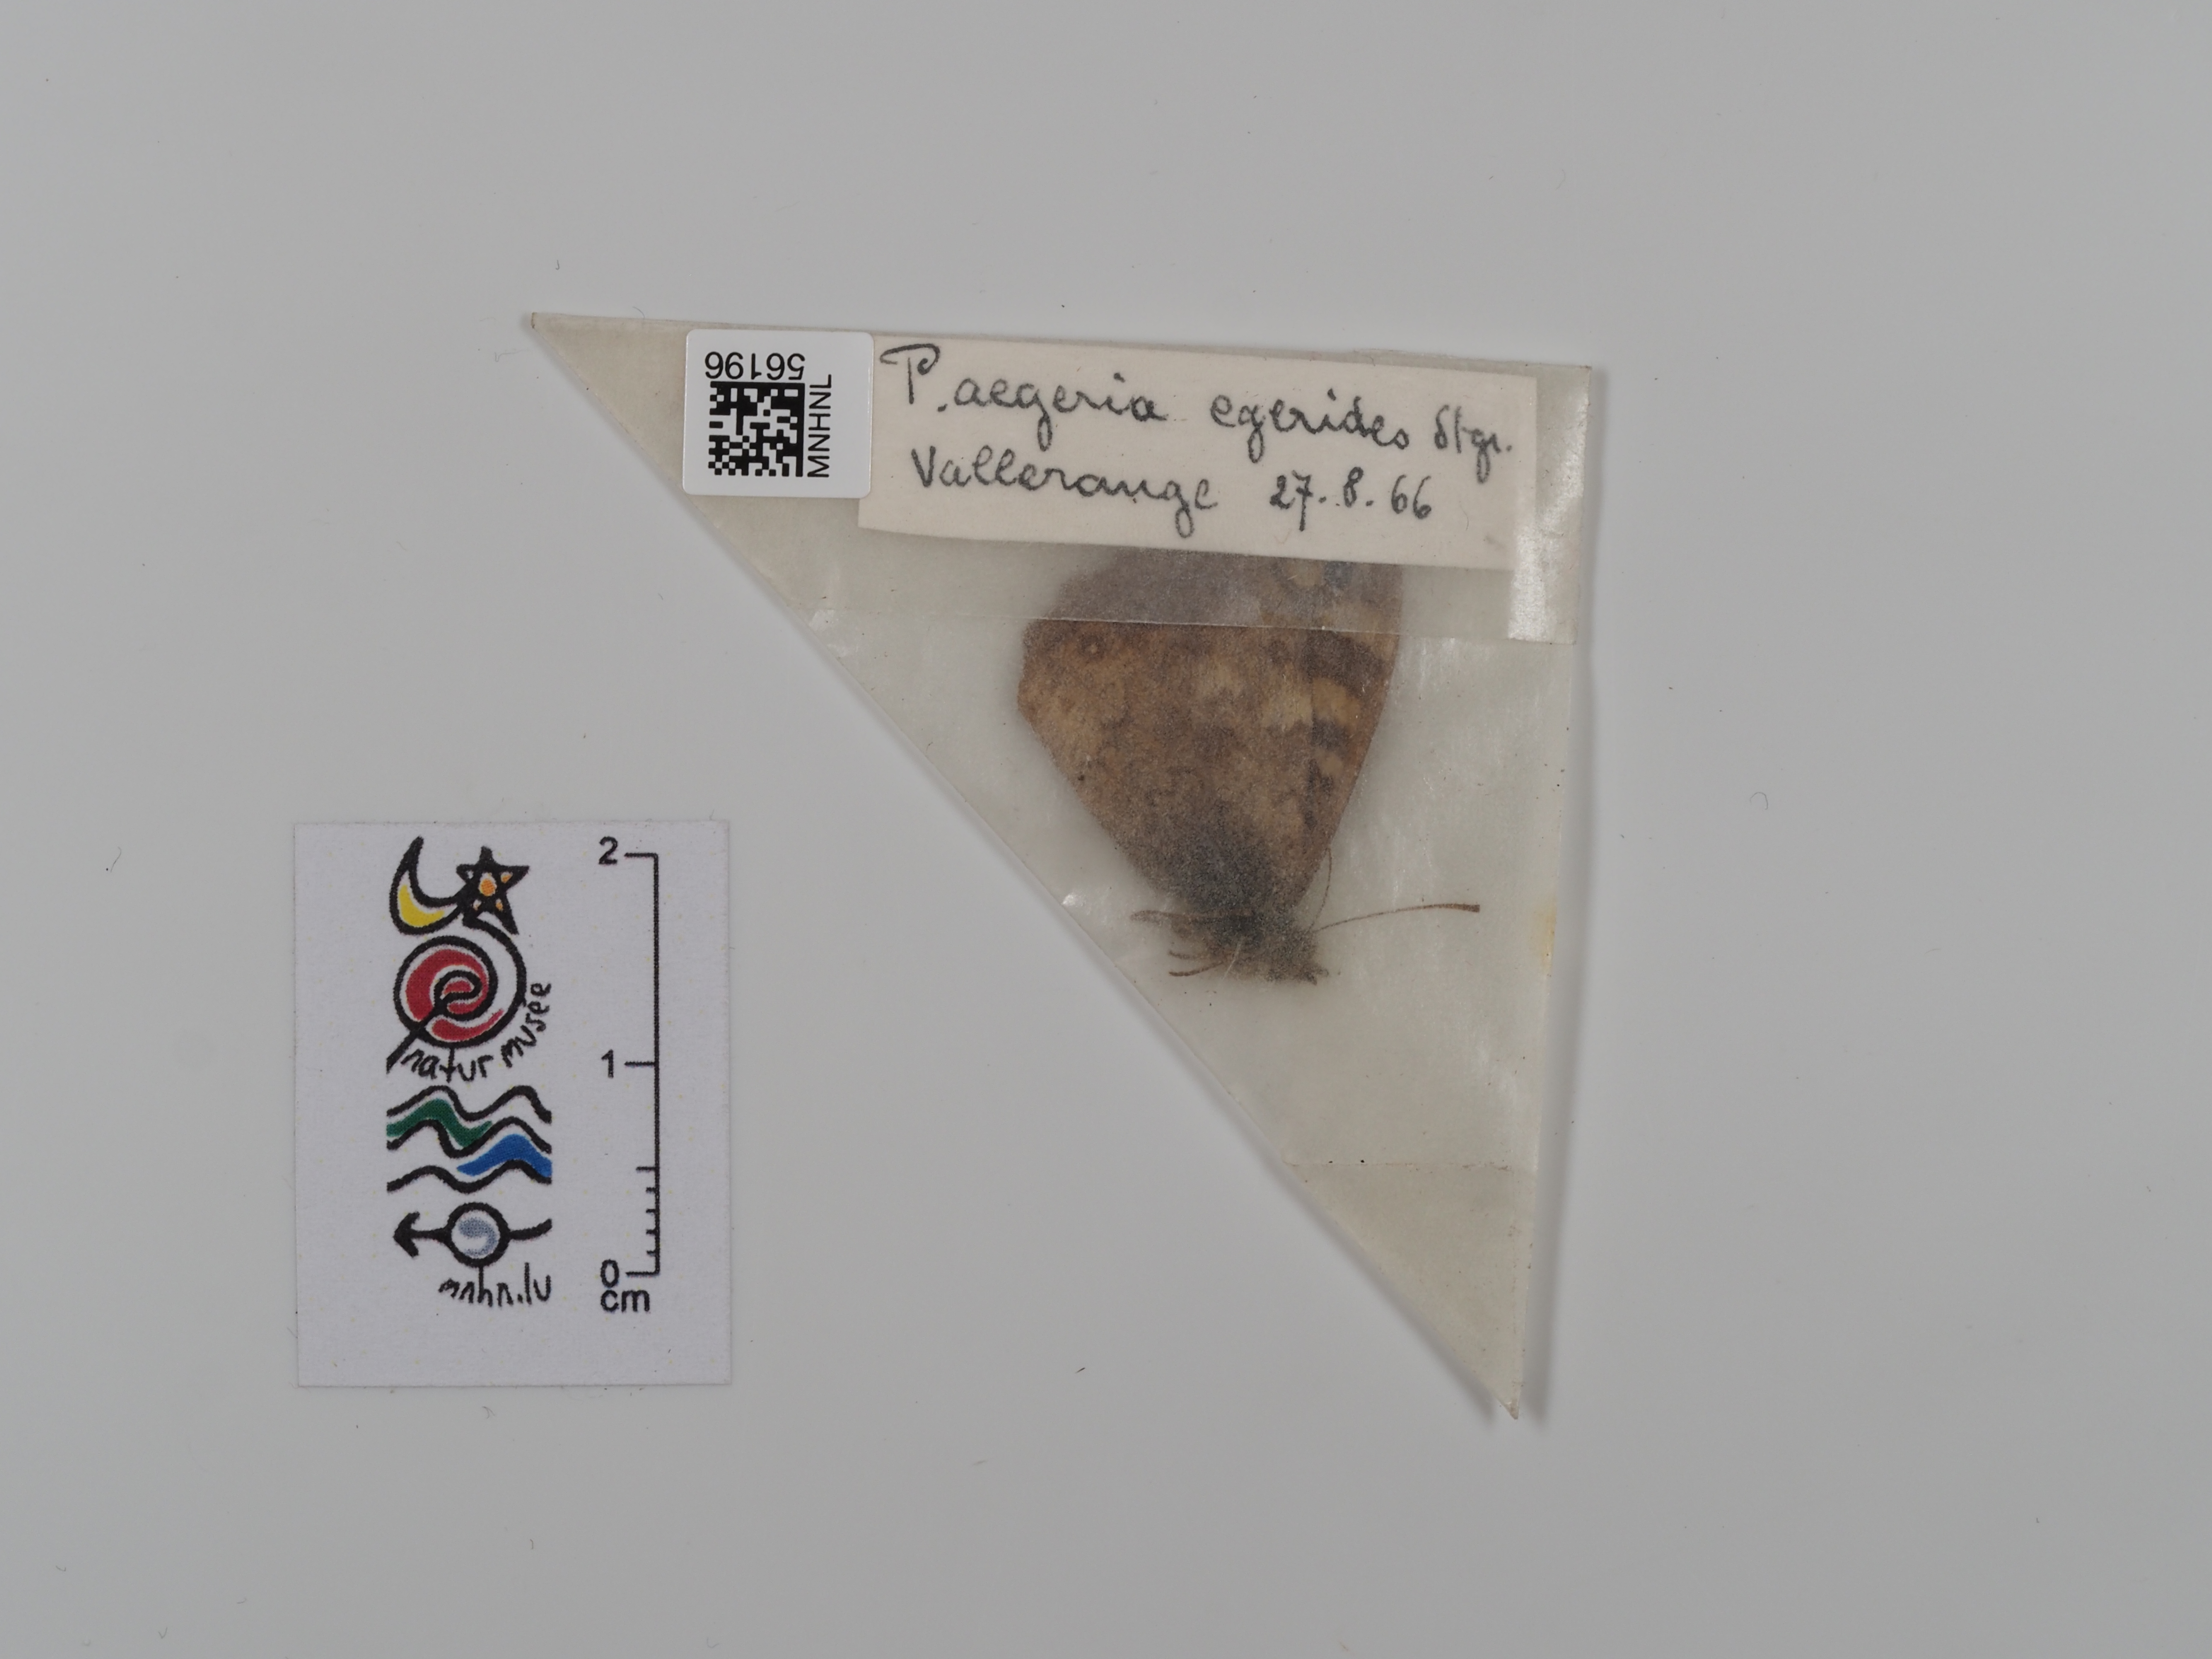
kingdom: Animalia
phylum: Arthropoda
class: Insecta
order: Lepidoptera
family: Nymphalidae
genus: Pararge
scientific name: Pararge aegeria
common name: Speckled wood
